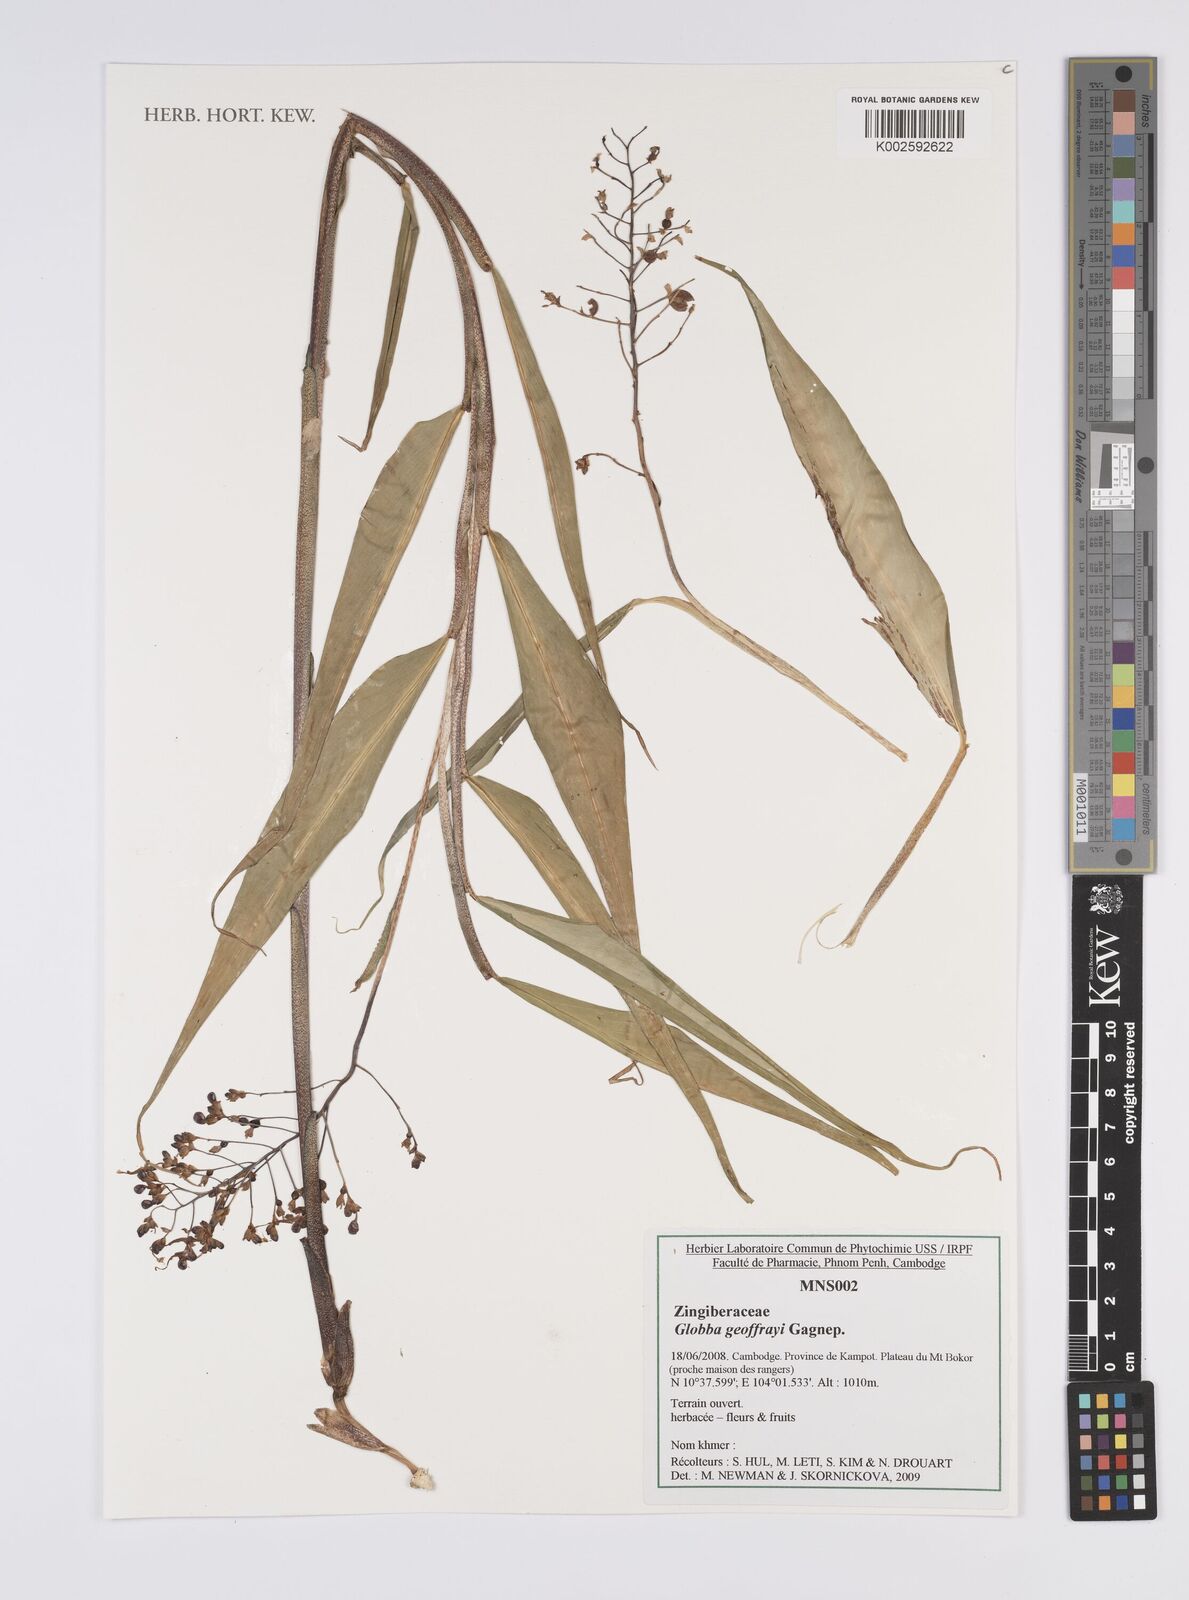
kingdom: Plantae
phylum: Tracheophyta
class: Liliopsida
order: Zingiberales
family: Zingiberaceae
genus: Globba
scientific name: Globba geoffrayi
